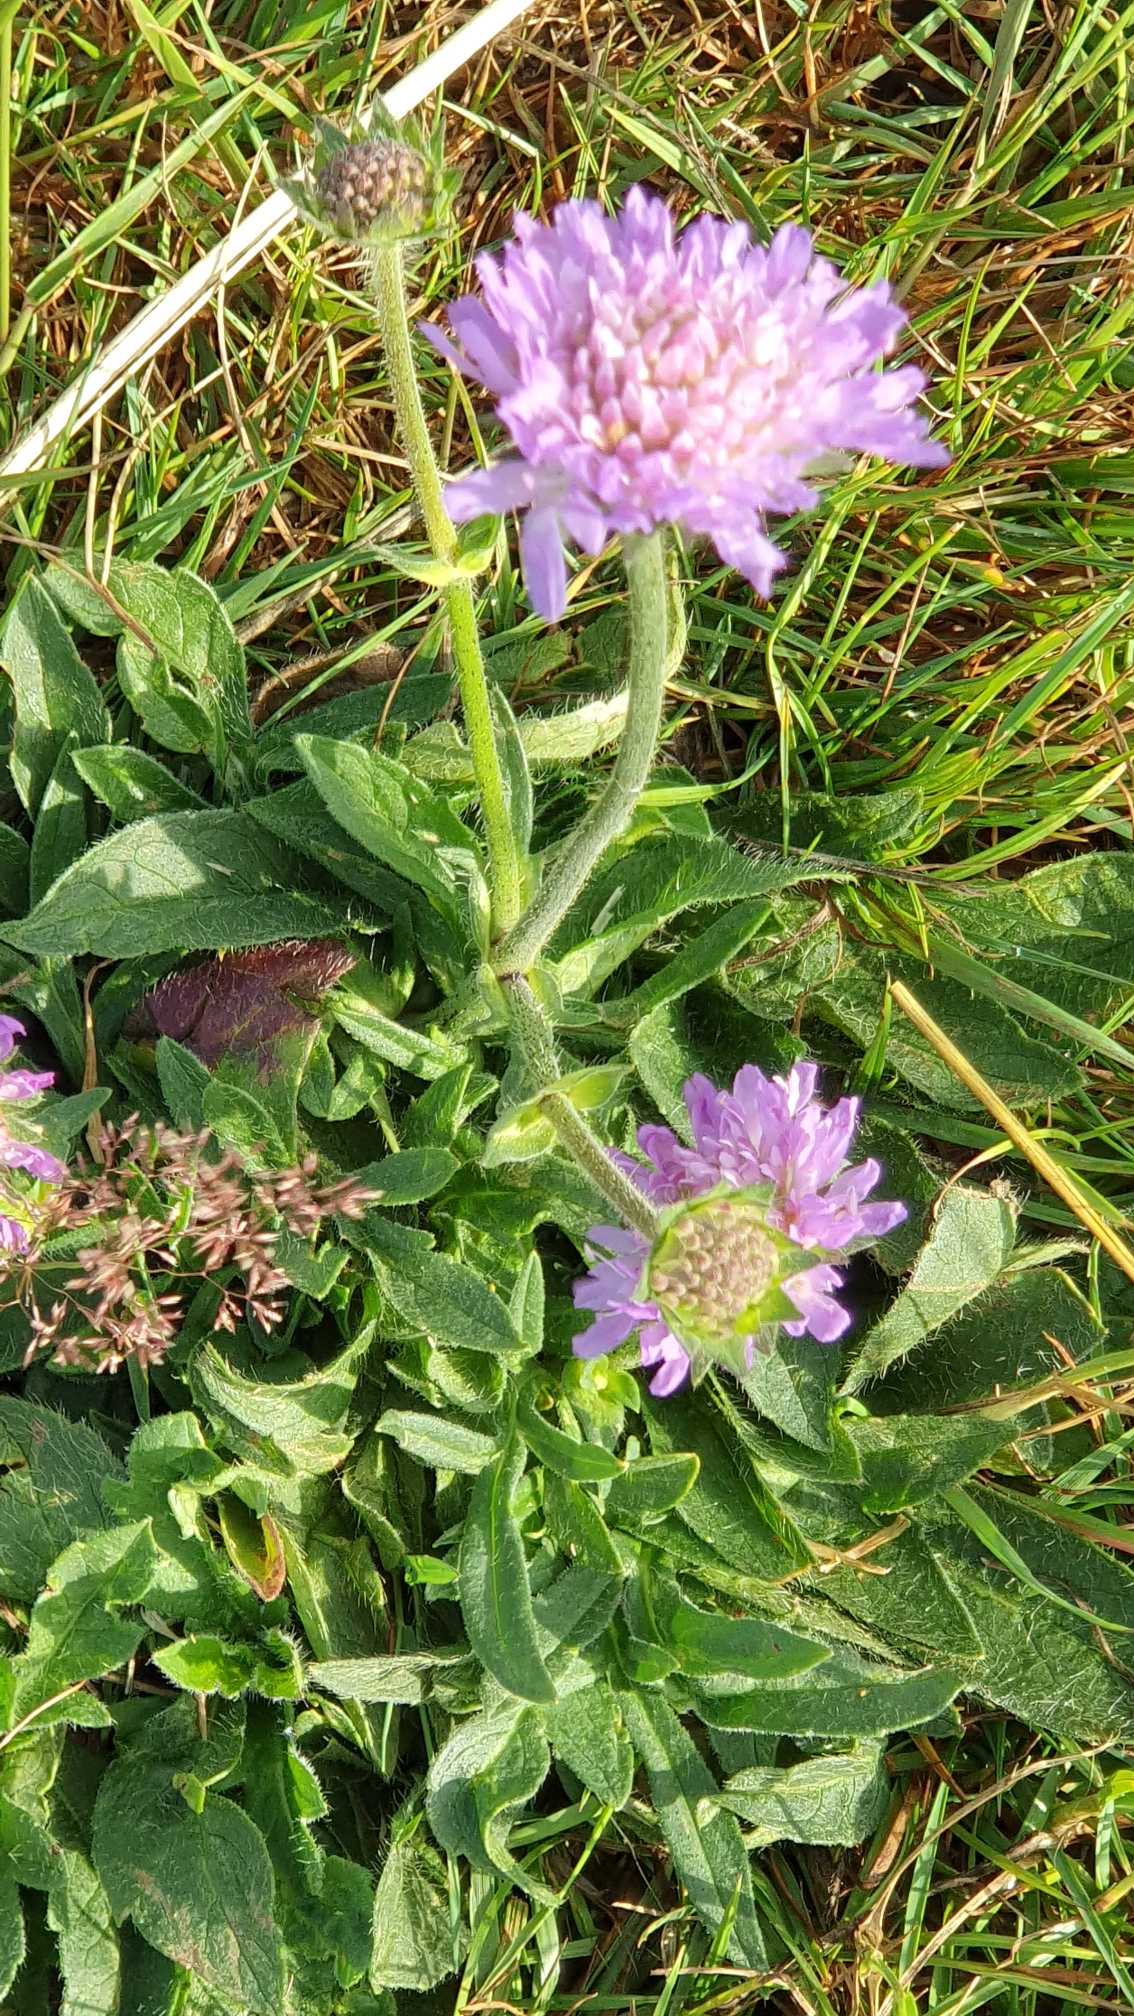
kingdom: Plantae
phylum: Tracheophyta
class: Magnoliopsida
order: Dipsacales
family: Caprifoliaceae
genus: Knautia
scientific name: Knautia arvensis
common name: Blåhat
